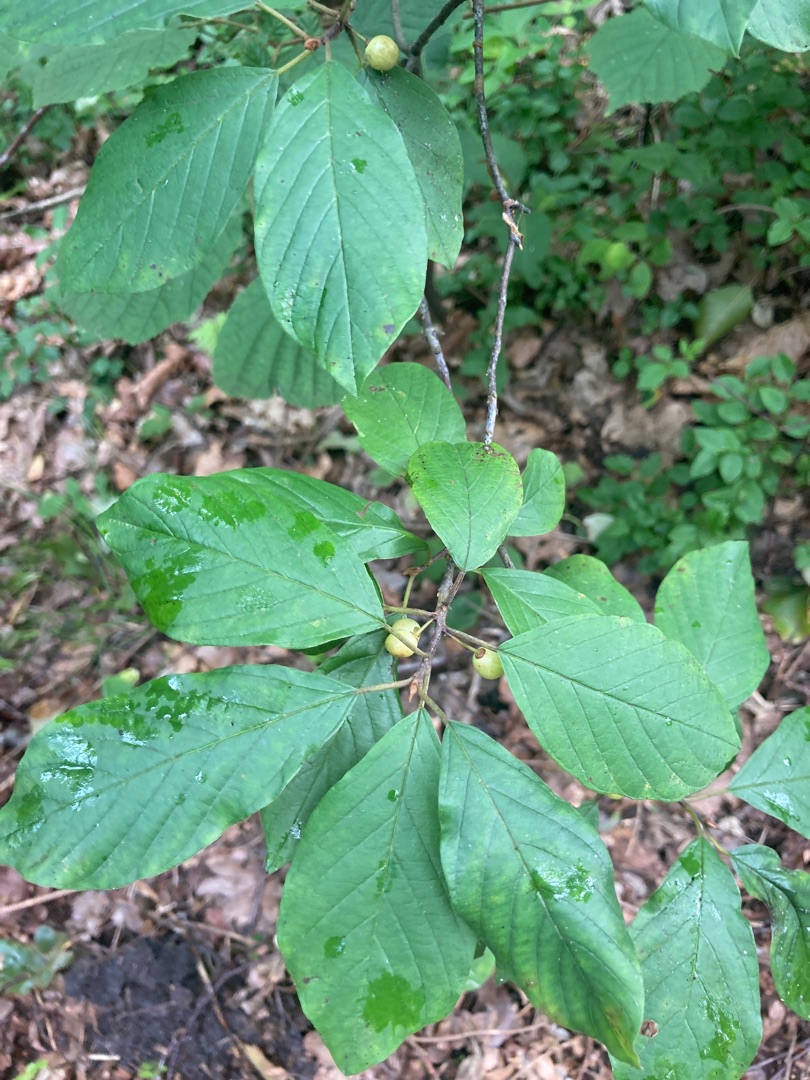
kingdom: Plantae
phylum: Tracheophyta
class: Magnoliopsida
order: Rosales
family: Rhamnaceae
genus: Frangula
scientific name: Frangula alnus
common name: Tørst
